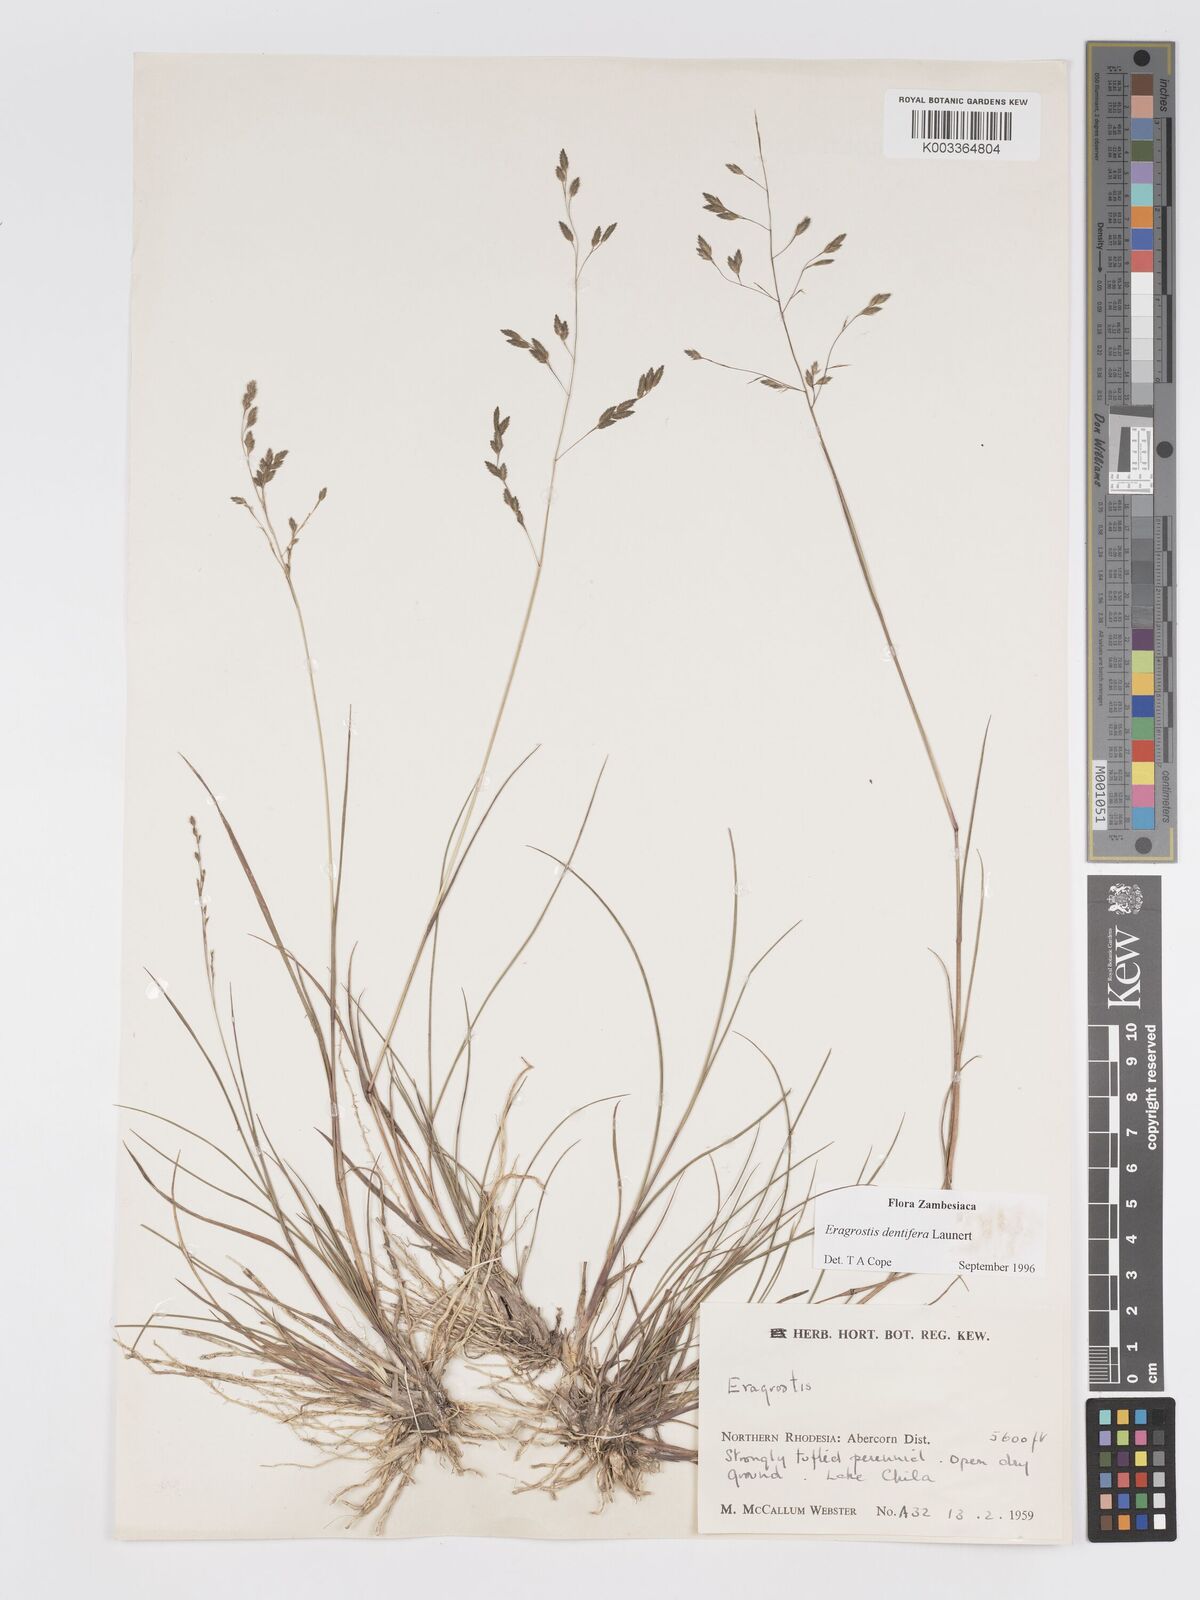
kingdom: Plantae
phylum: Tracheophyta
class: Liliopsida
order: Poales
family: Poaceae
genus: Eragrostis
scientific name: Eragrostis dentifera
